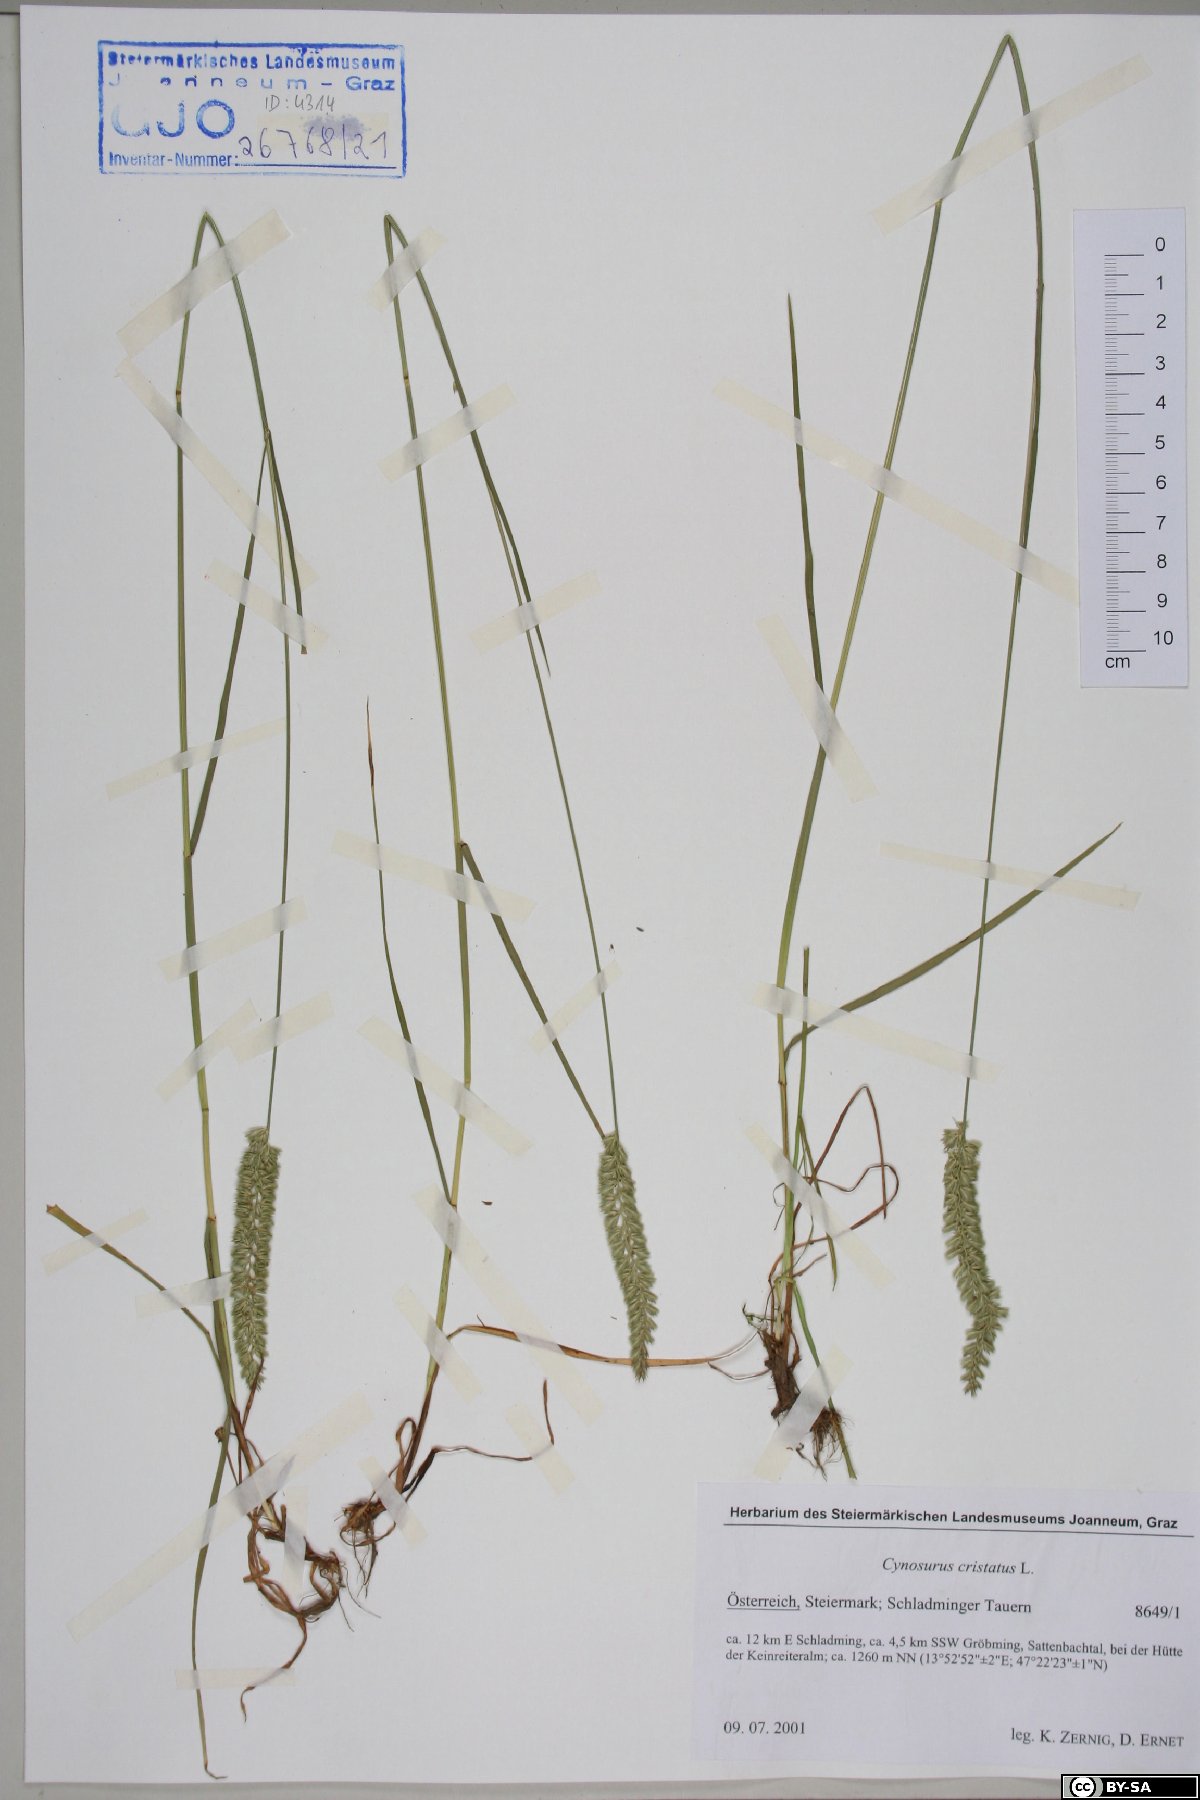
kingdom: Plantae
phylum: Tracheophyta
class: Liliopsida
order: Poales
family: Poaceae
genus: Cynosurus
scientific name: Cynosurus cristatus
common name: Crested dog's-tail
